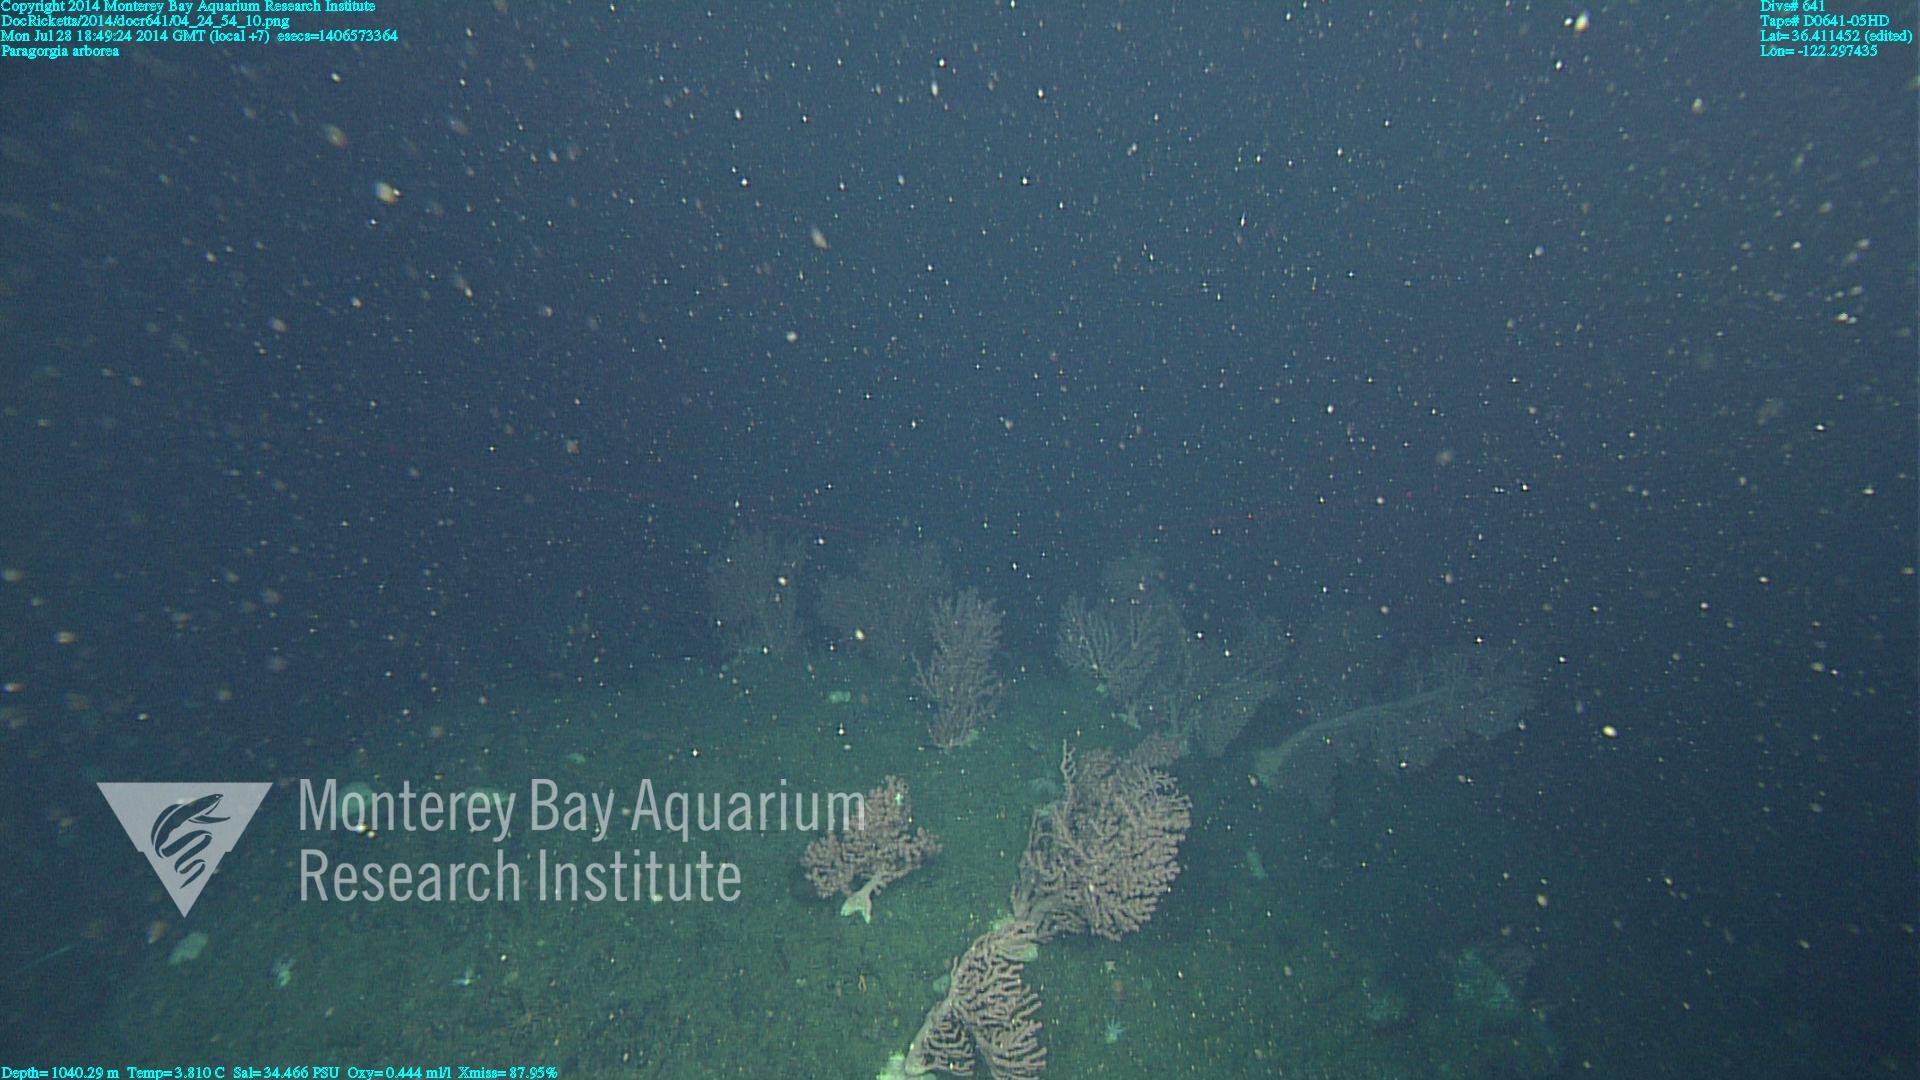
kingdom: Animalia
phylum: Cnidaria
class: Anthozoa
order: Scleralcyonacea
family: Coralliidae
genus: Paragorgia
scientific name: Paragorgia arborea
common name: Bubble gum coral
